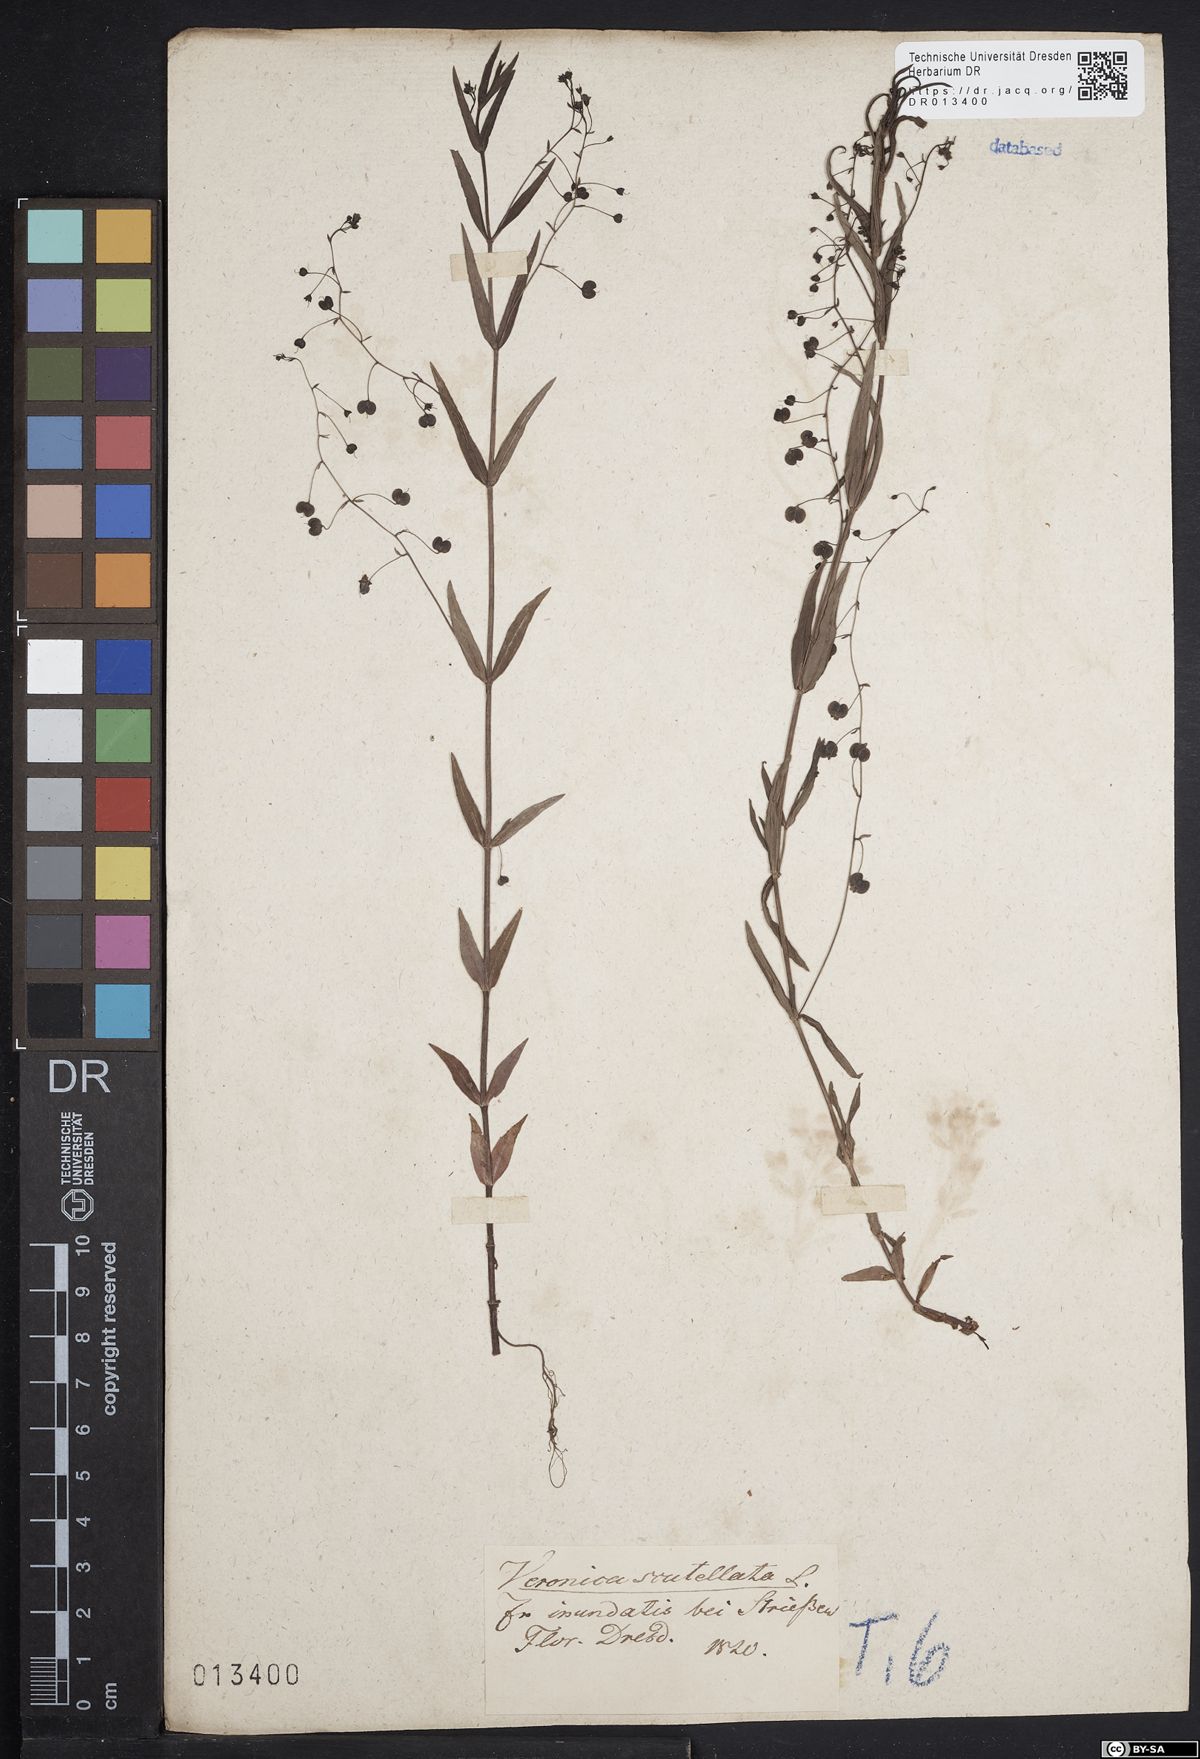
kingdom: Plantae
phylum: Tracheophyta
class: Magnoliopsida
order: Lamiales
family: Plantaginaceae
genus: Veronica
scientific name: Veronica scutellata
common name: Marsh speedwell
